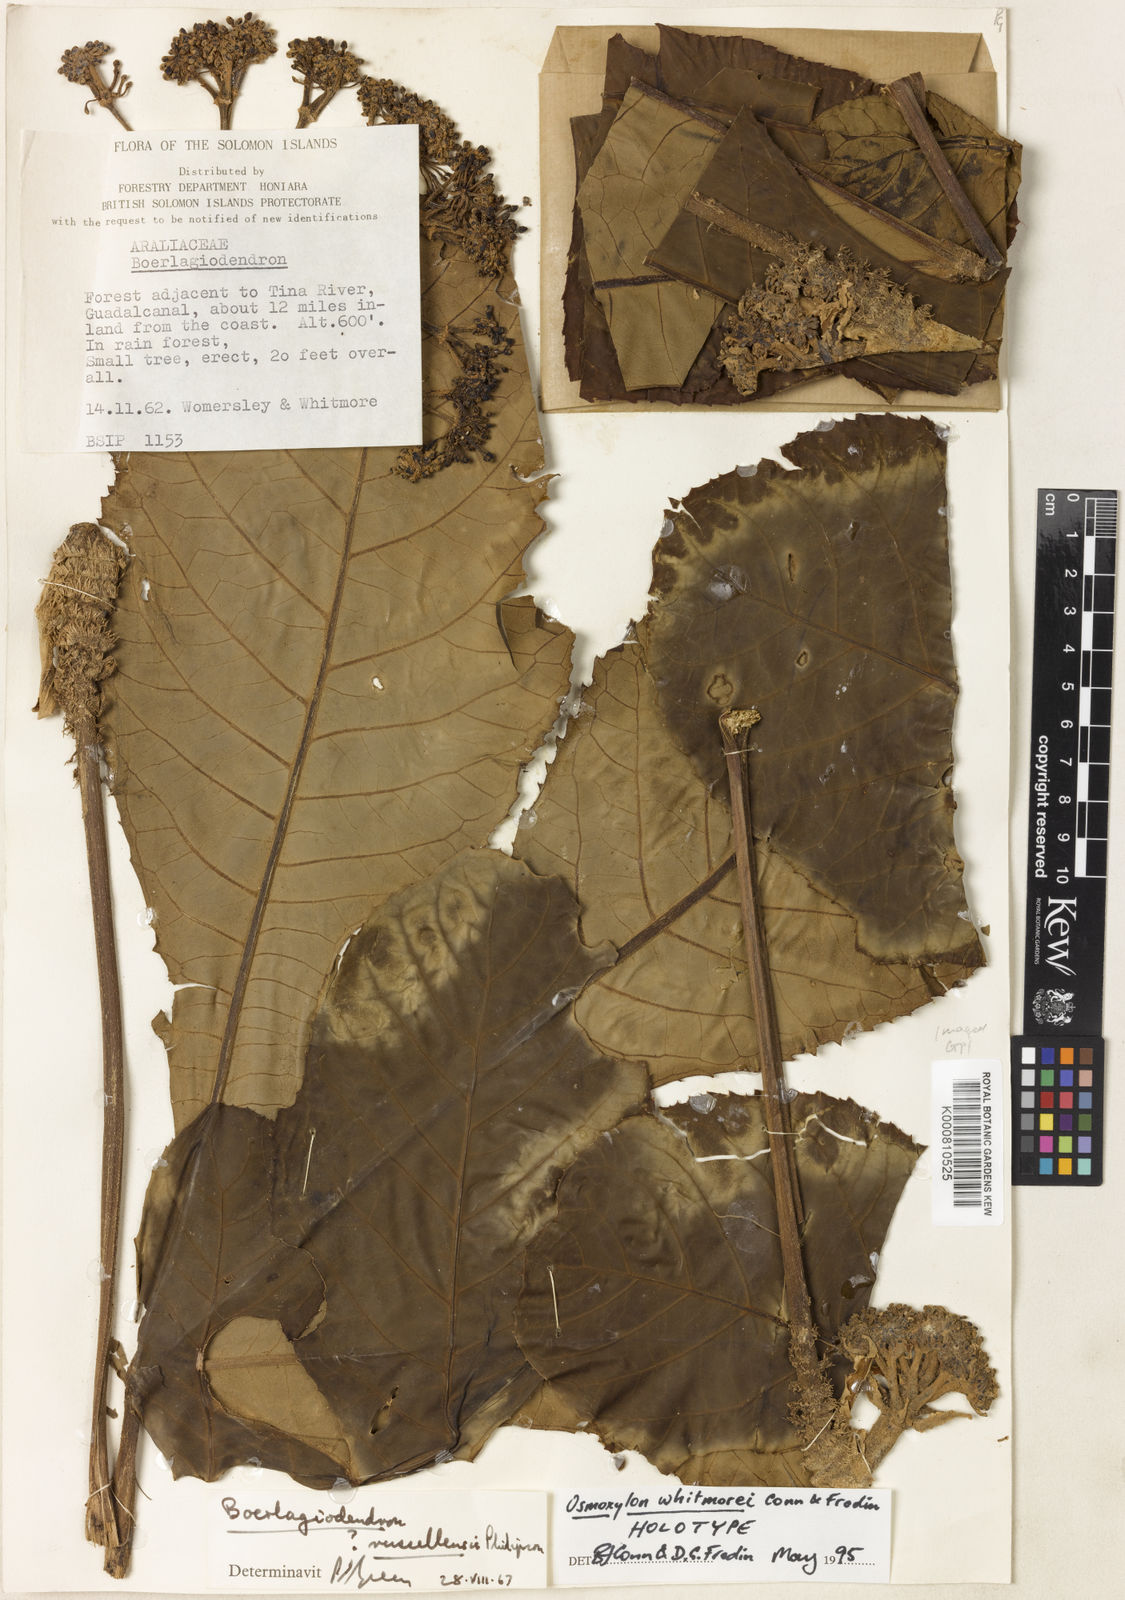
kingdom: Plantae
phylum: Tracheophyta
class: Magnoliopsida
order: Apiales
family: Araliaceae
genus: Osmoxylon
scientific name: Osmoxylon whitmorei
